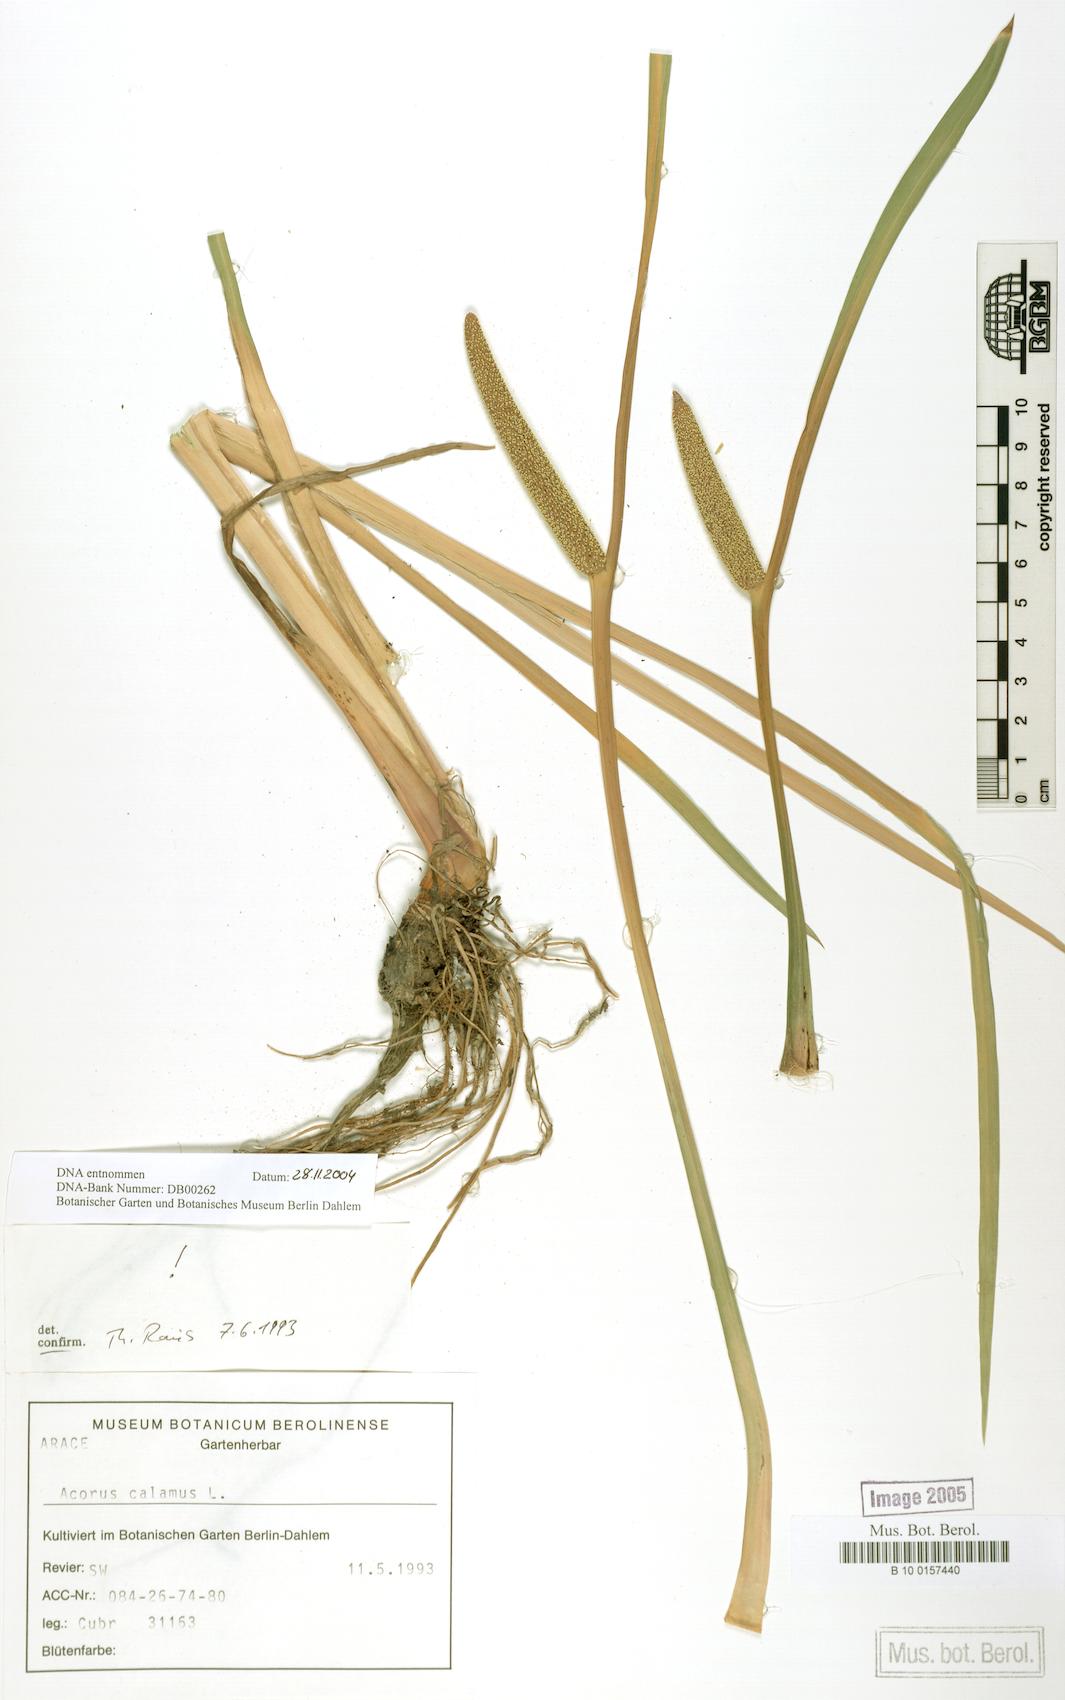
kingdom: Plantae
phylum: Tracheophyta
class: Liliopsida
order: Acorales
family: Acoraceae
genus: Acorus
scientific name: Acorus calamus
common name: Sweet-flag
